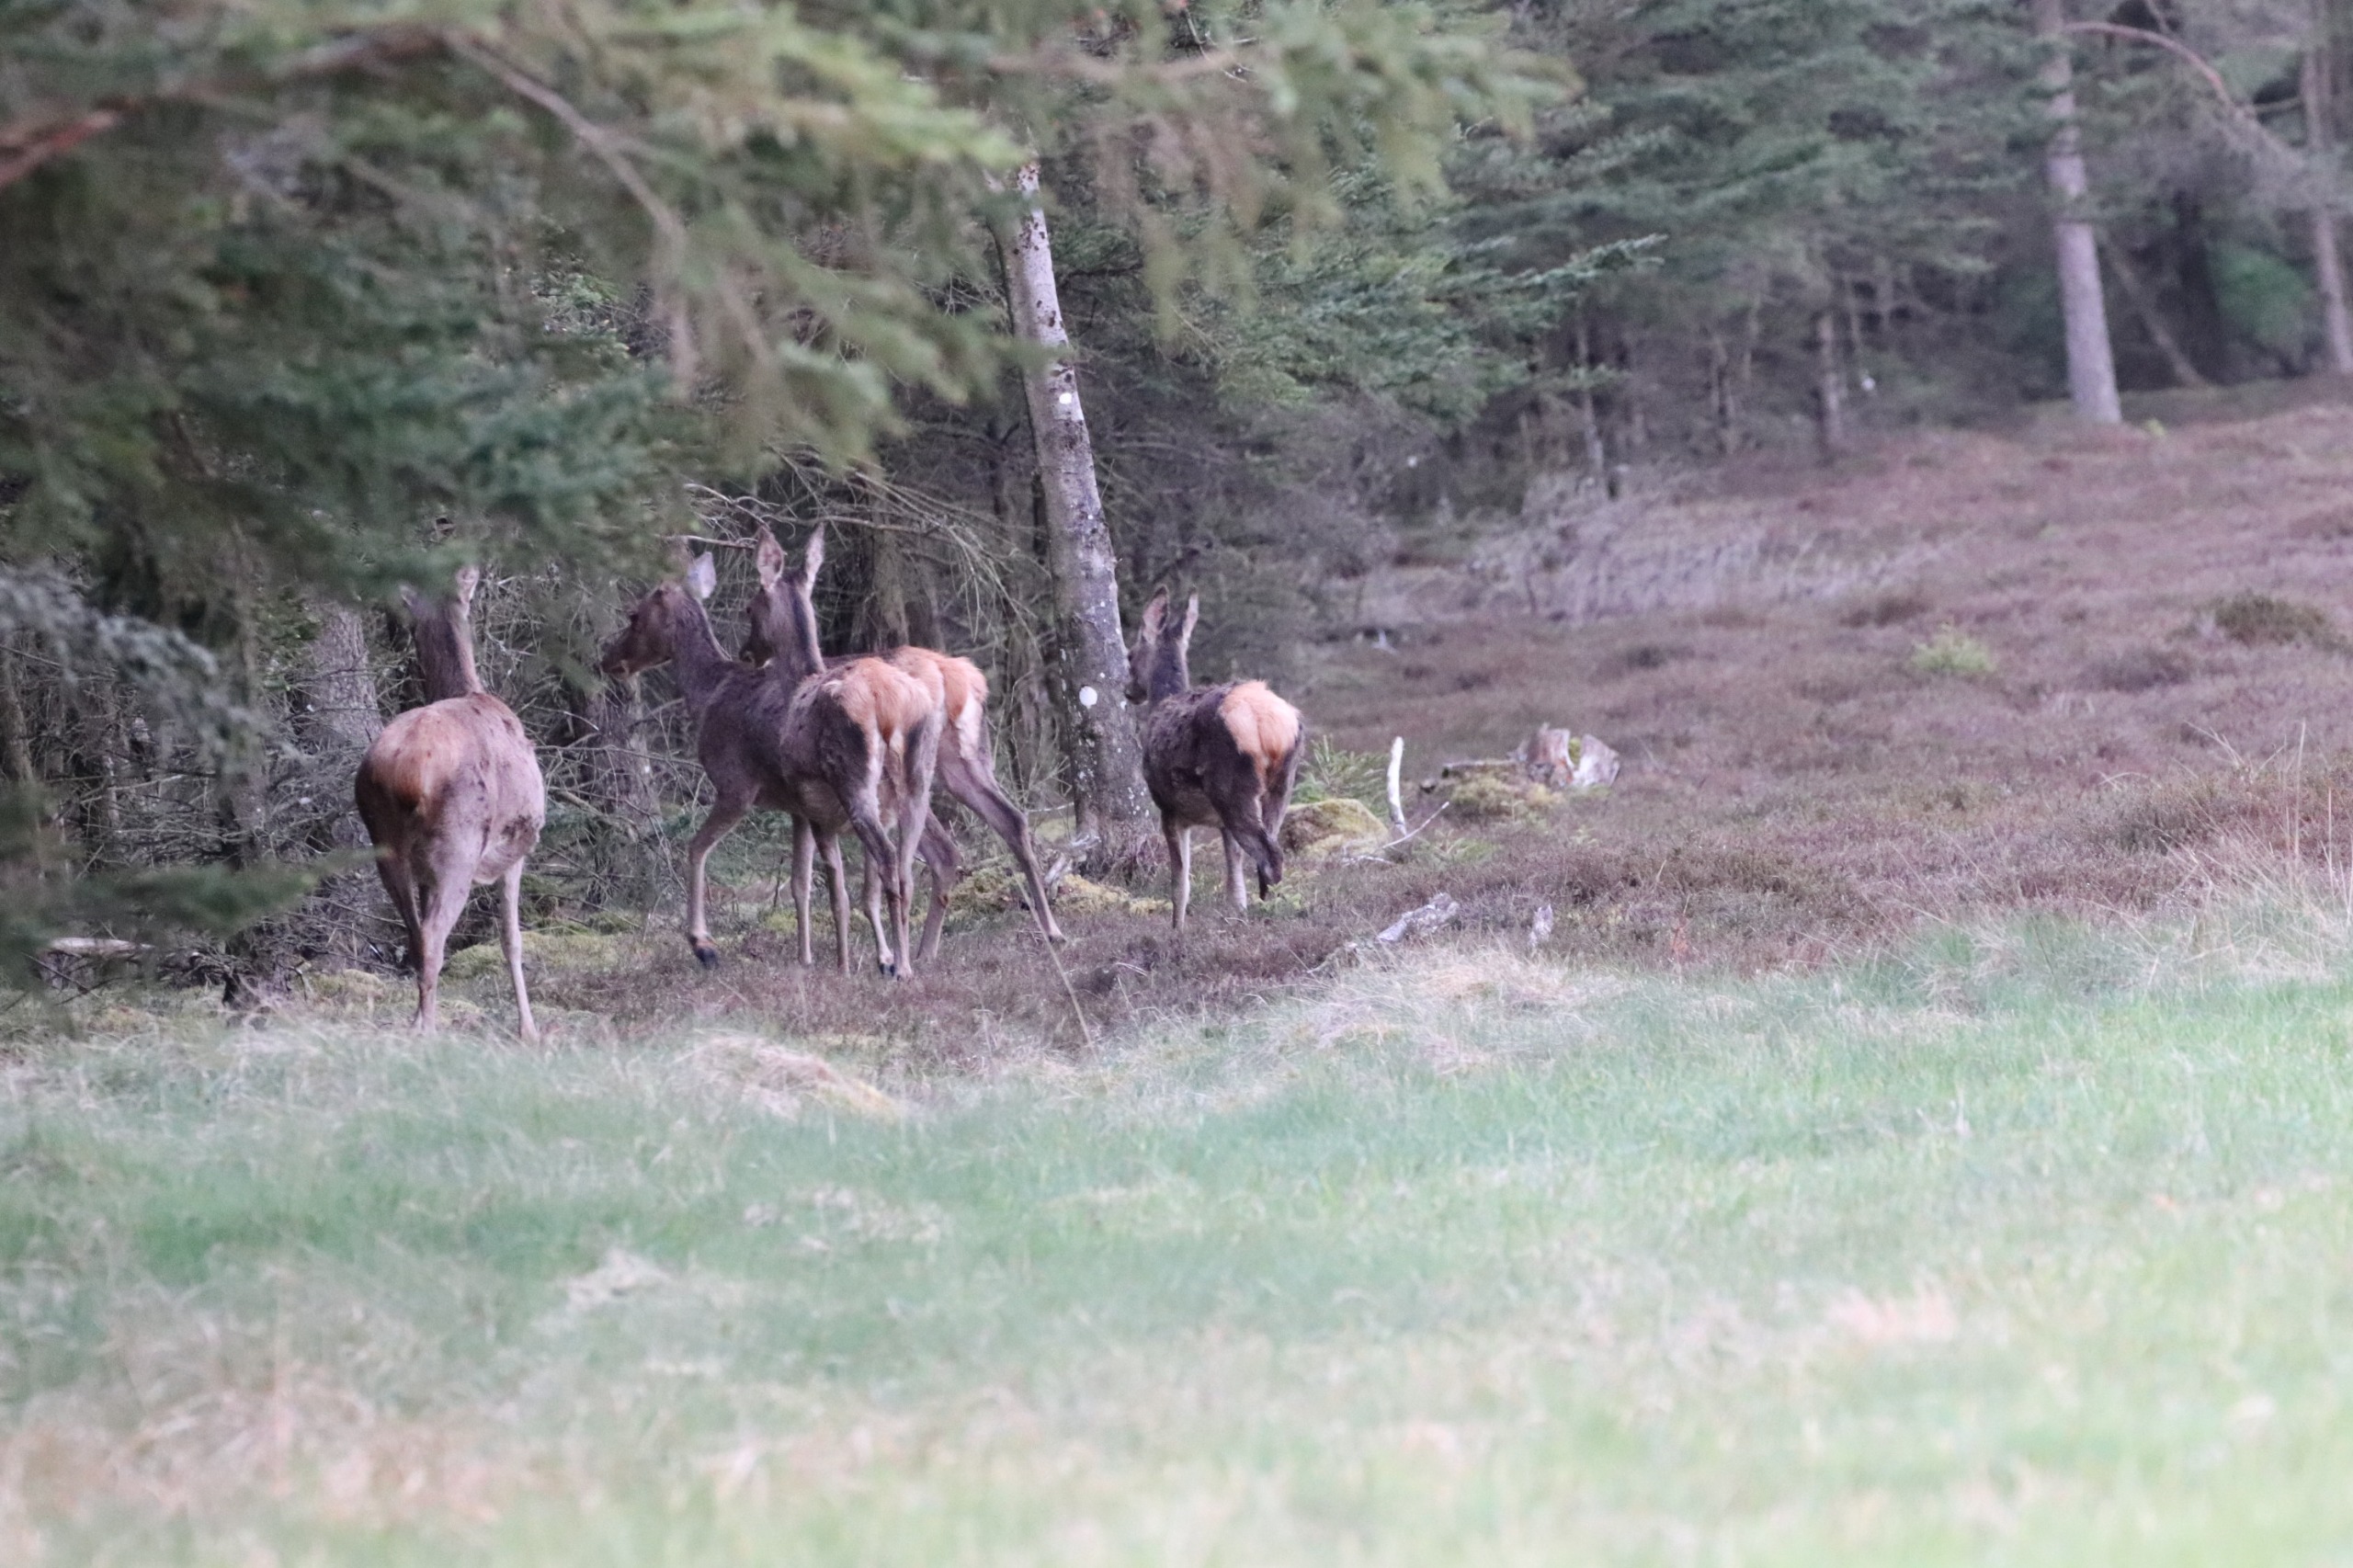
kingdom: Animalia
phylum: Chordata
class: Mammalia
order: Artiodactyla
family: Cervidae
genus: Cervus
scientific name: Cervus elaphus
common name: Krondyr
